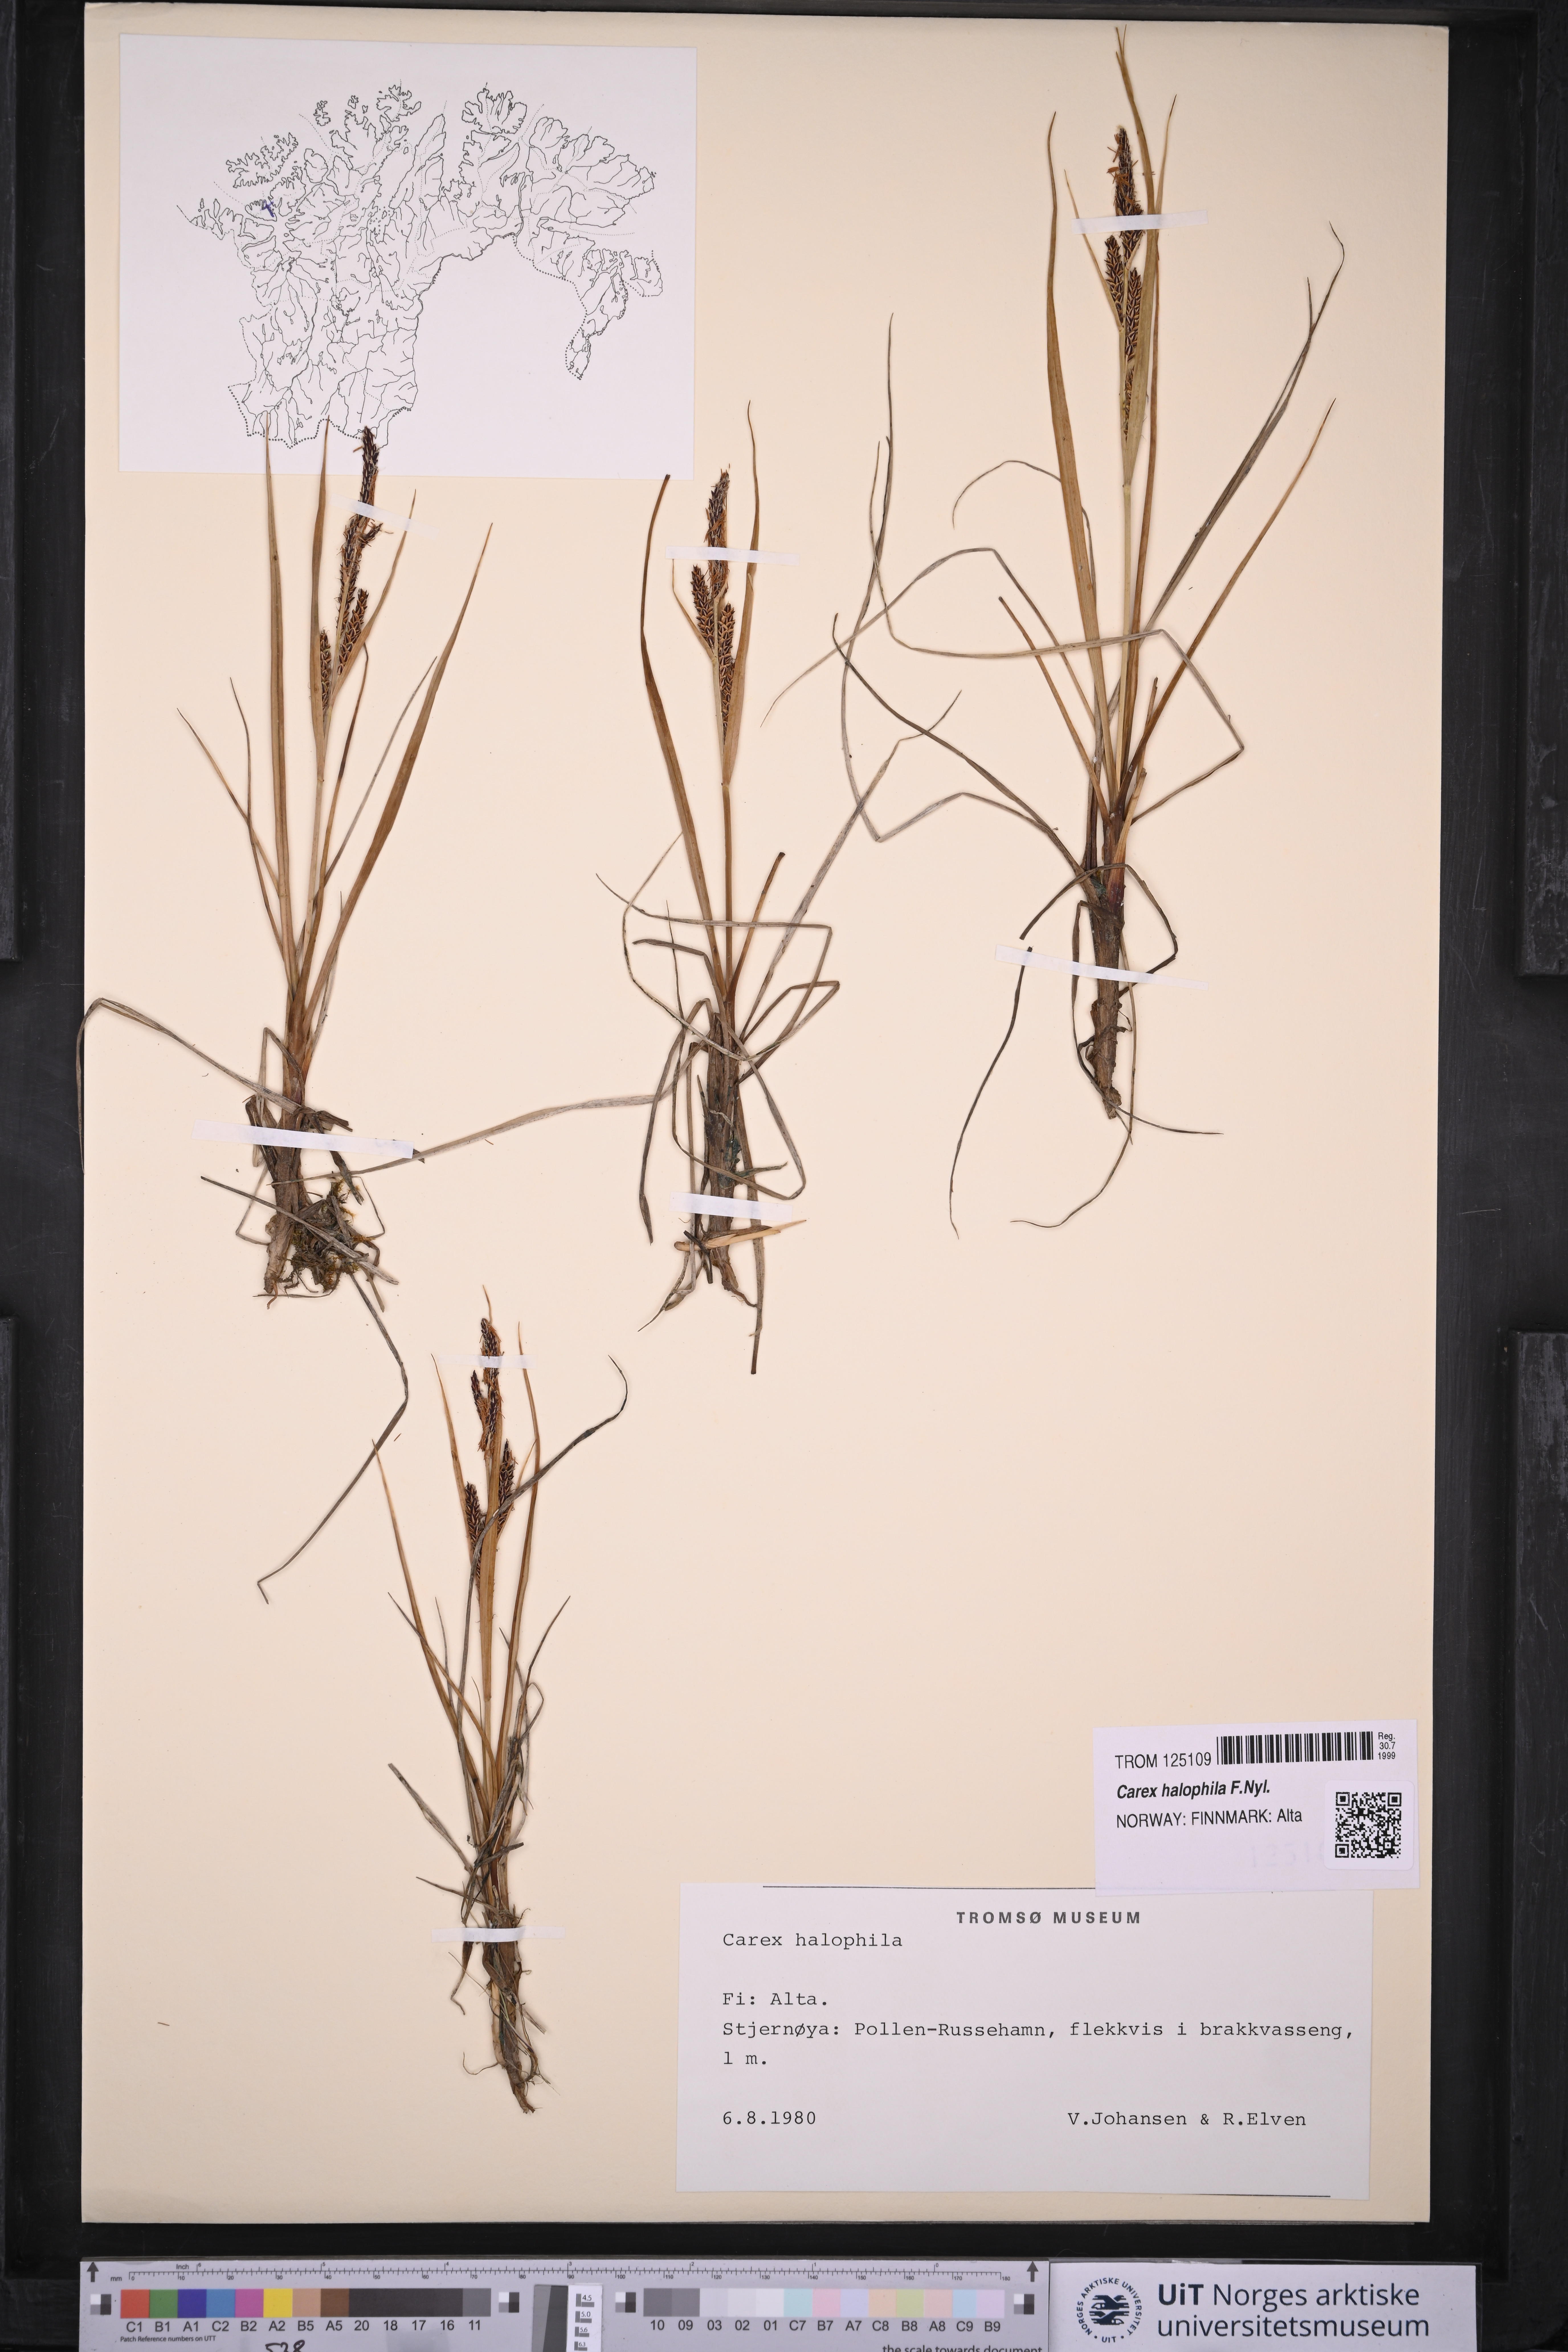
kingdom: Plantae
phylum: Tracheophyta
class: Liliopsida
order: Poales
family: Cyperaceae
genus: Carex
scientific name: Carex halophila
